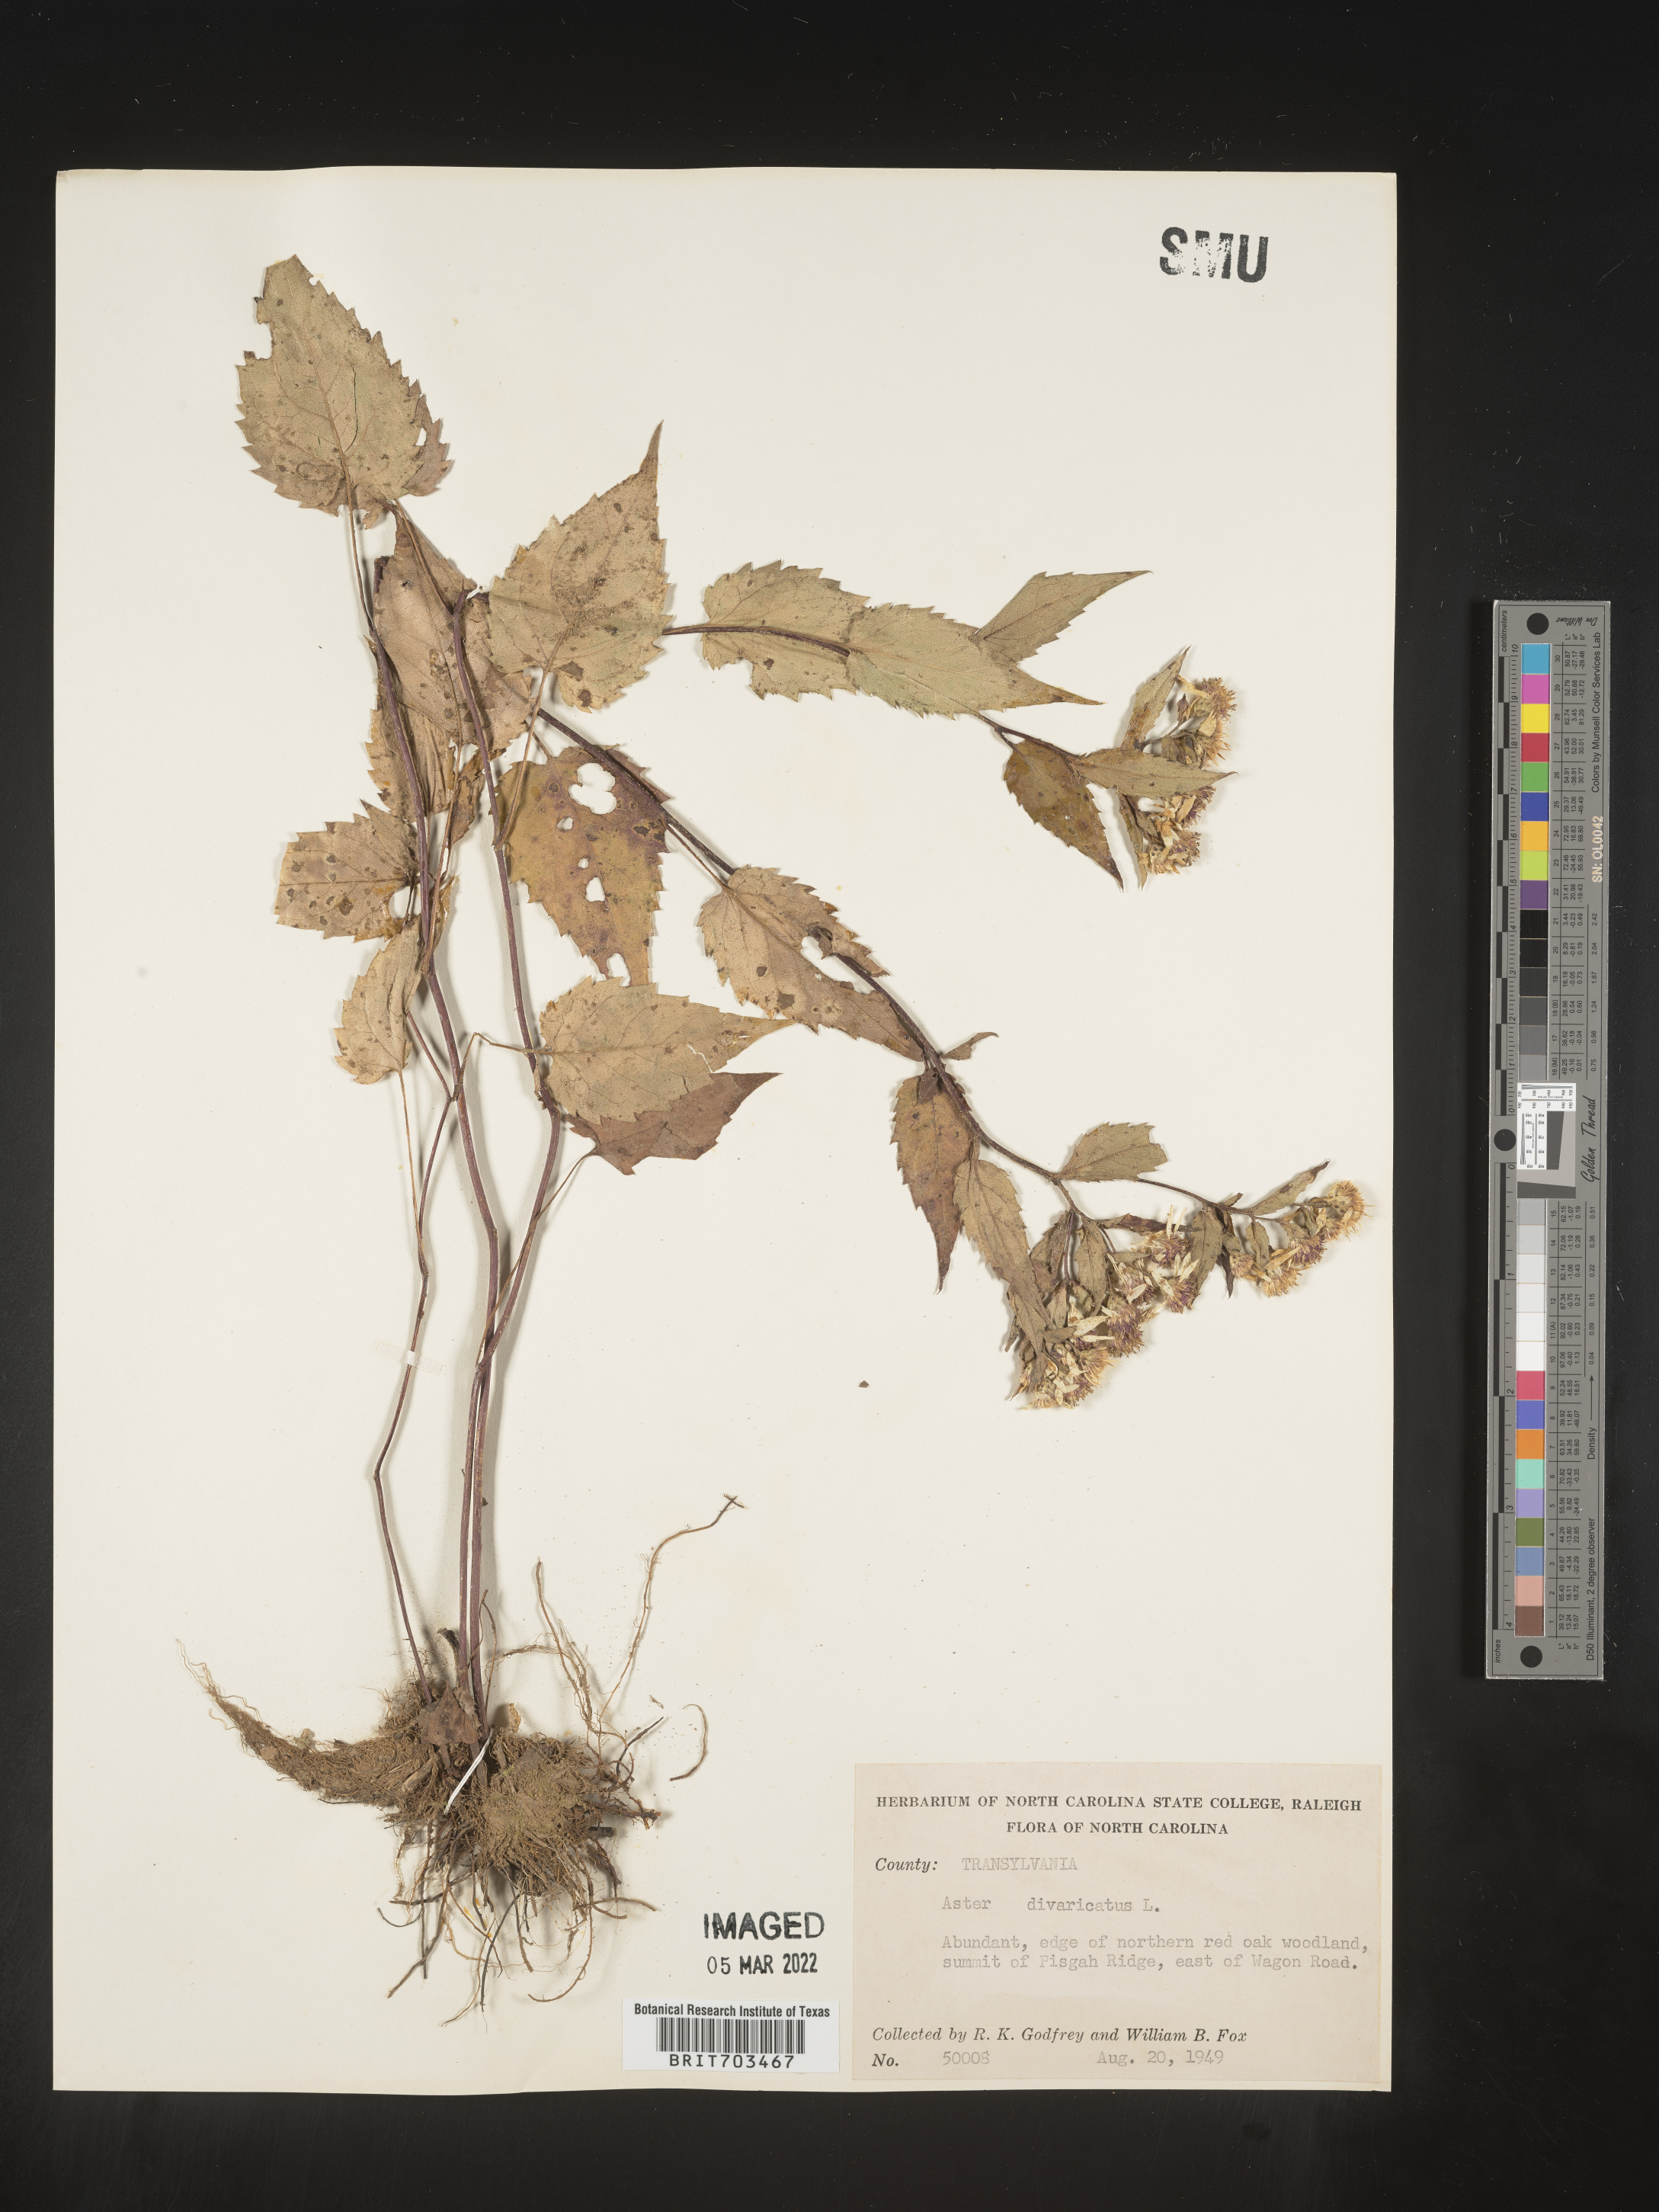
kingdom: Plantae
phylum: Tracheophyta
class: Magnoliopsida
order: Asterales
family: Asteraceae
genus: Eurybia
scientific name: Eurybia divaricata
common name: White wood aster
